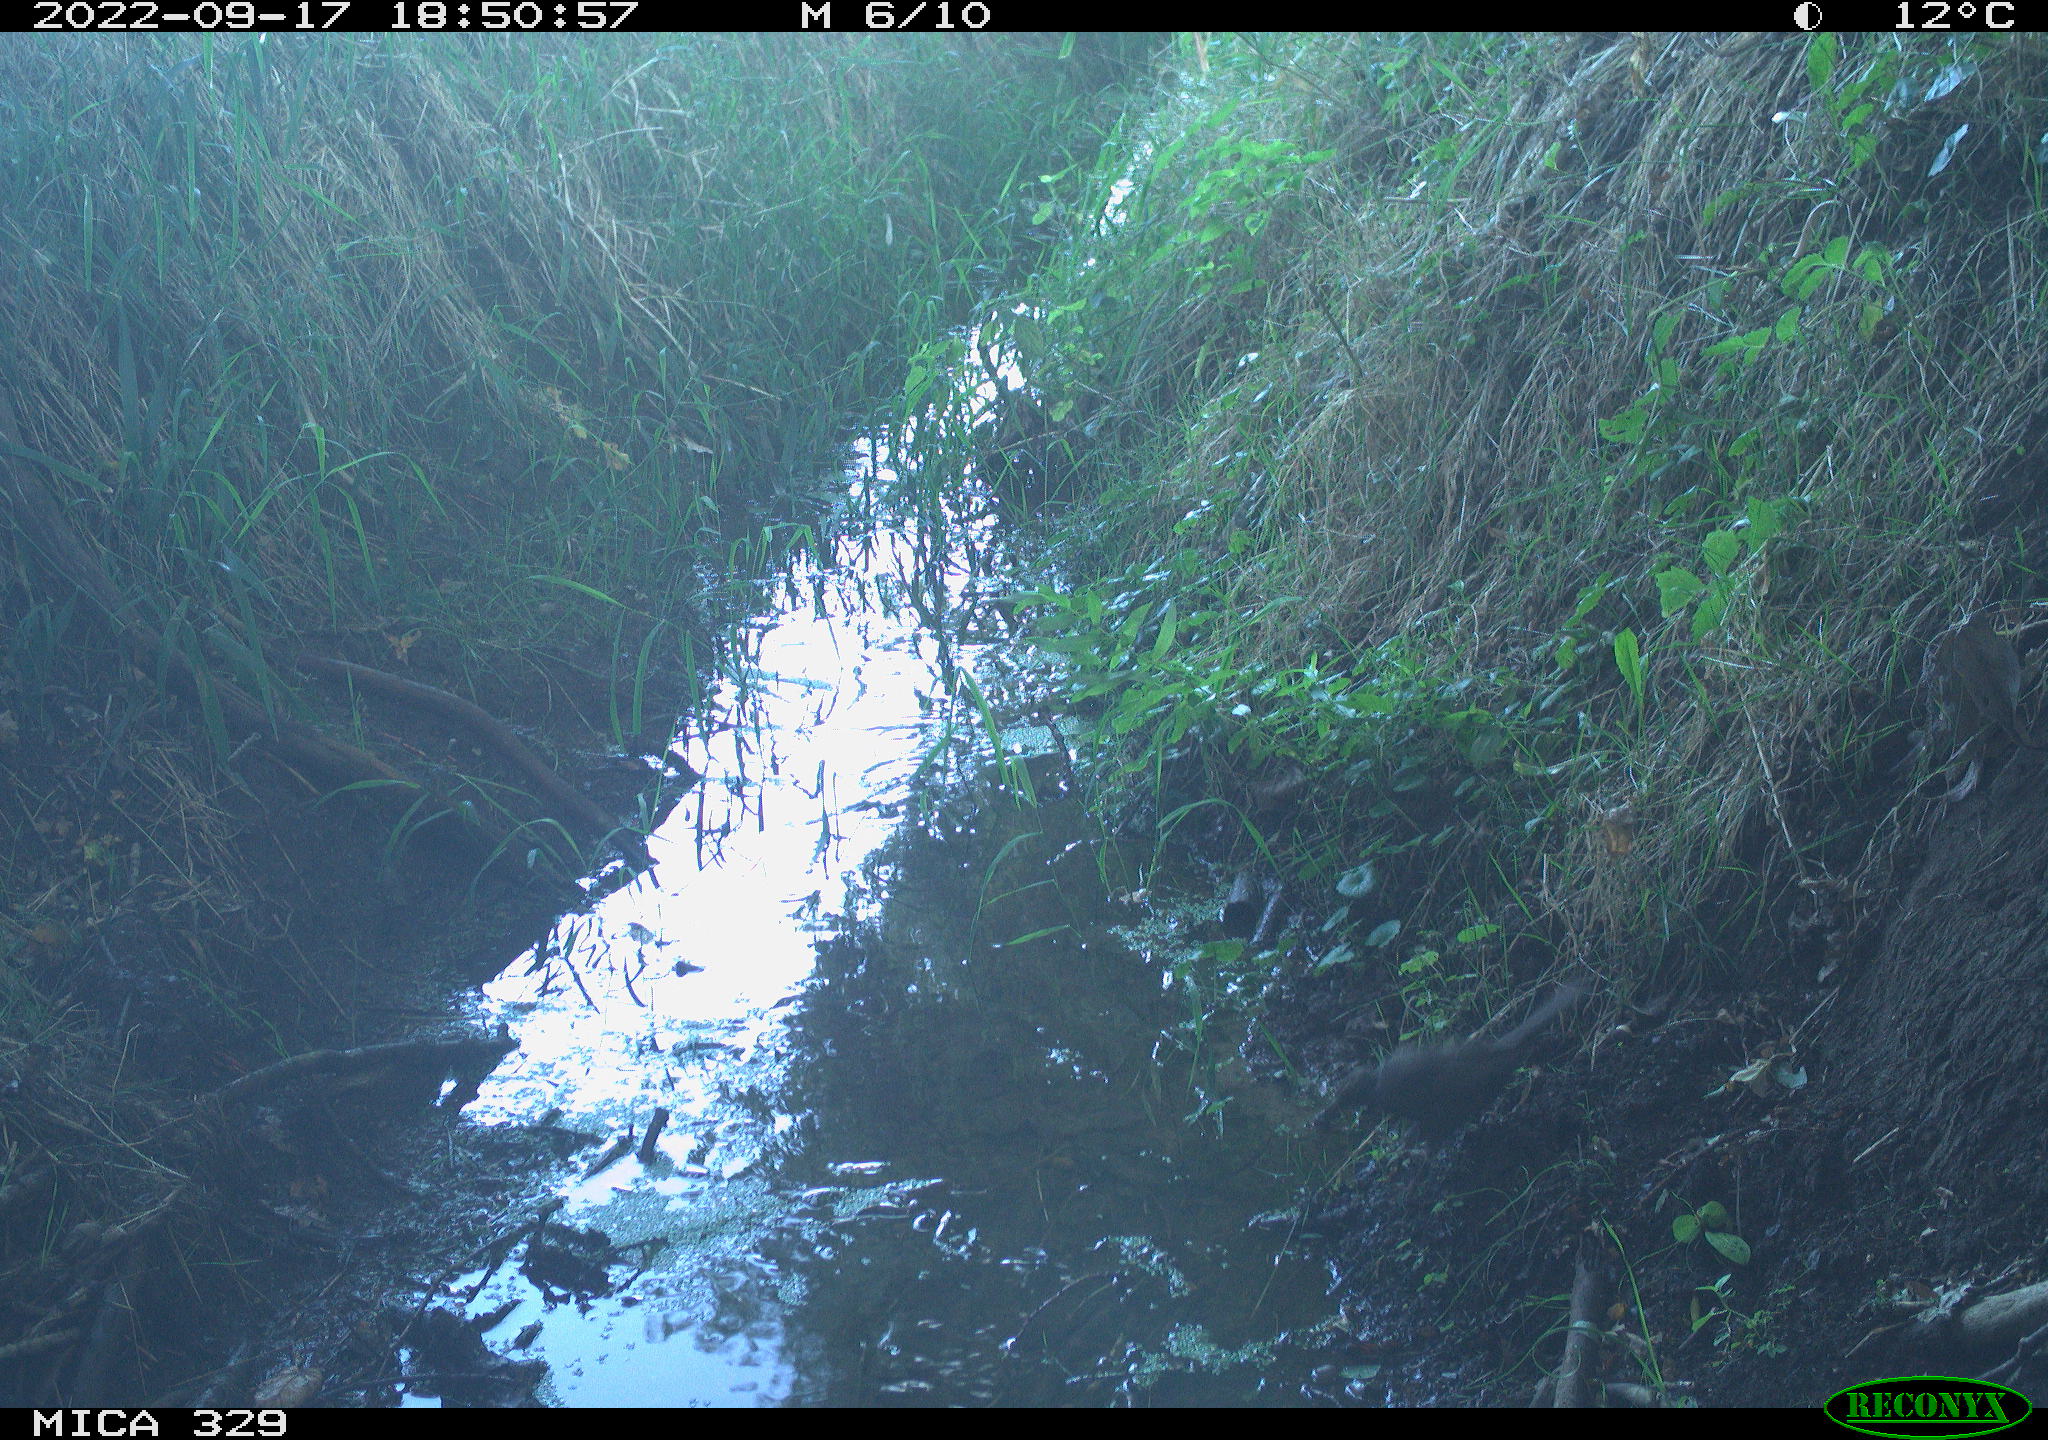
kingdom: Animalia
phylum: Chordata
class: Aves
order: Passeriformes
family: Turdidae
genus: Turdus
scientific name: Turdus merula
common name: Common blackbird
